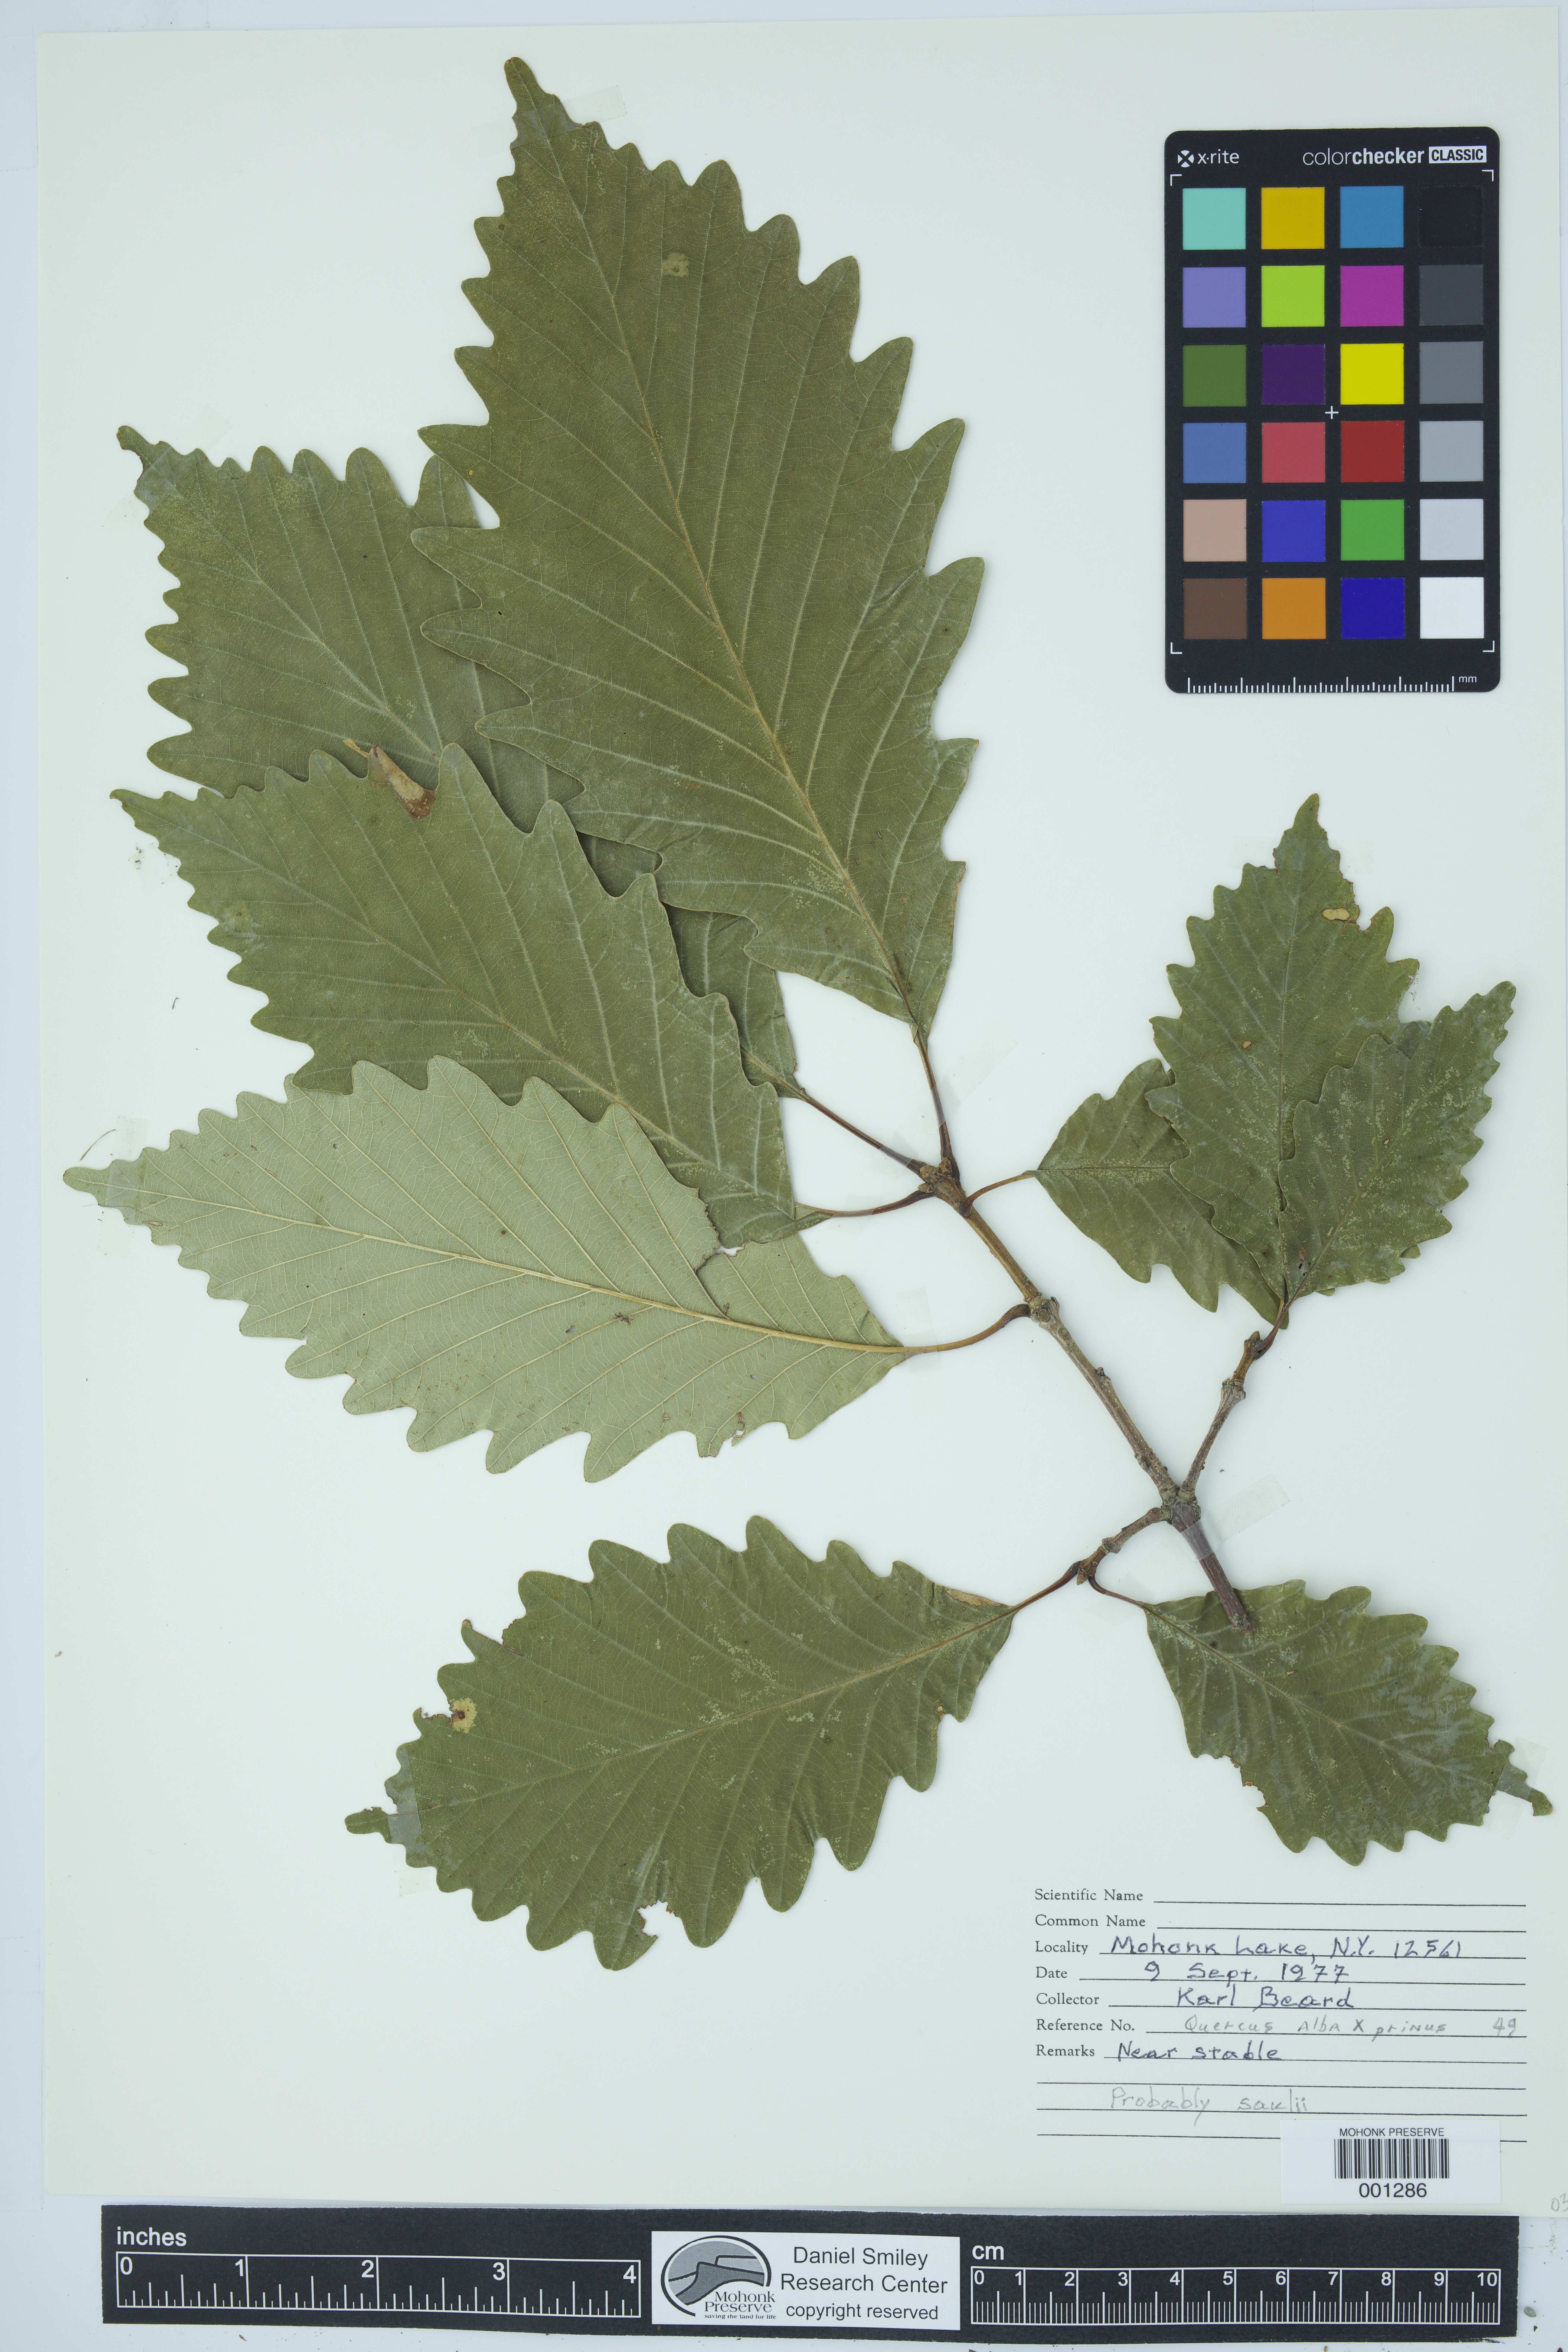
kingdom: Plantae
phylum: Tracheophyta
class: Magnoliopsida
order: Fagales
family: Fagaceae
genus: Quercus
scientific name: Quercus saulii
